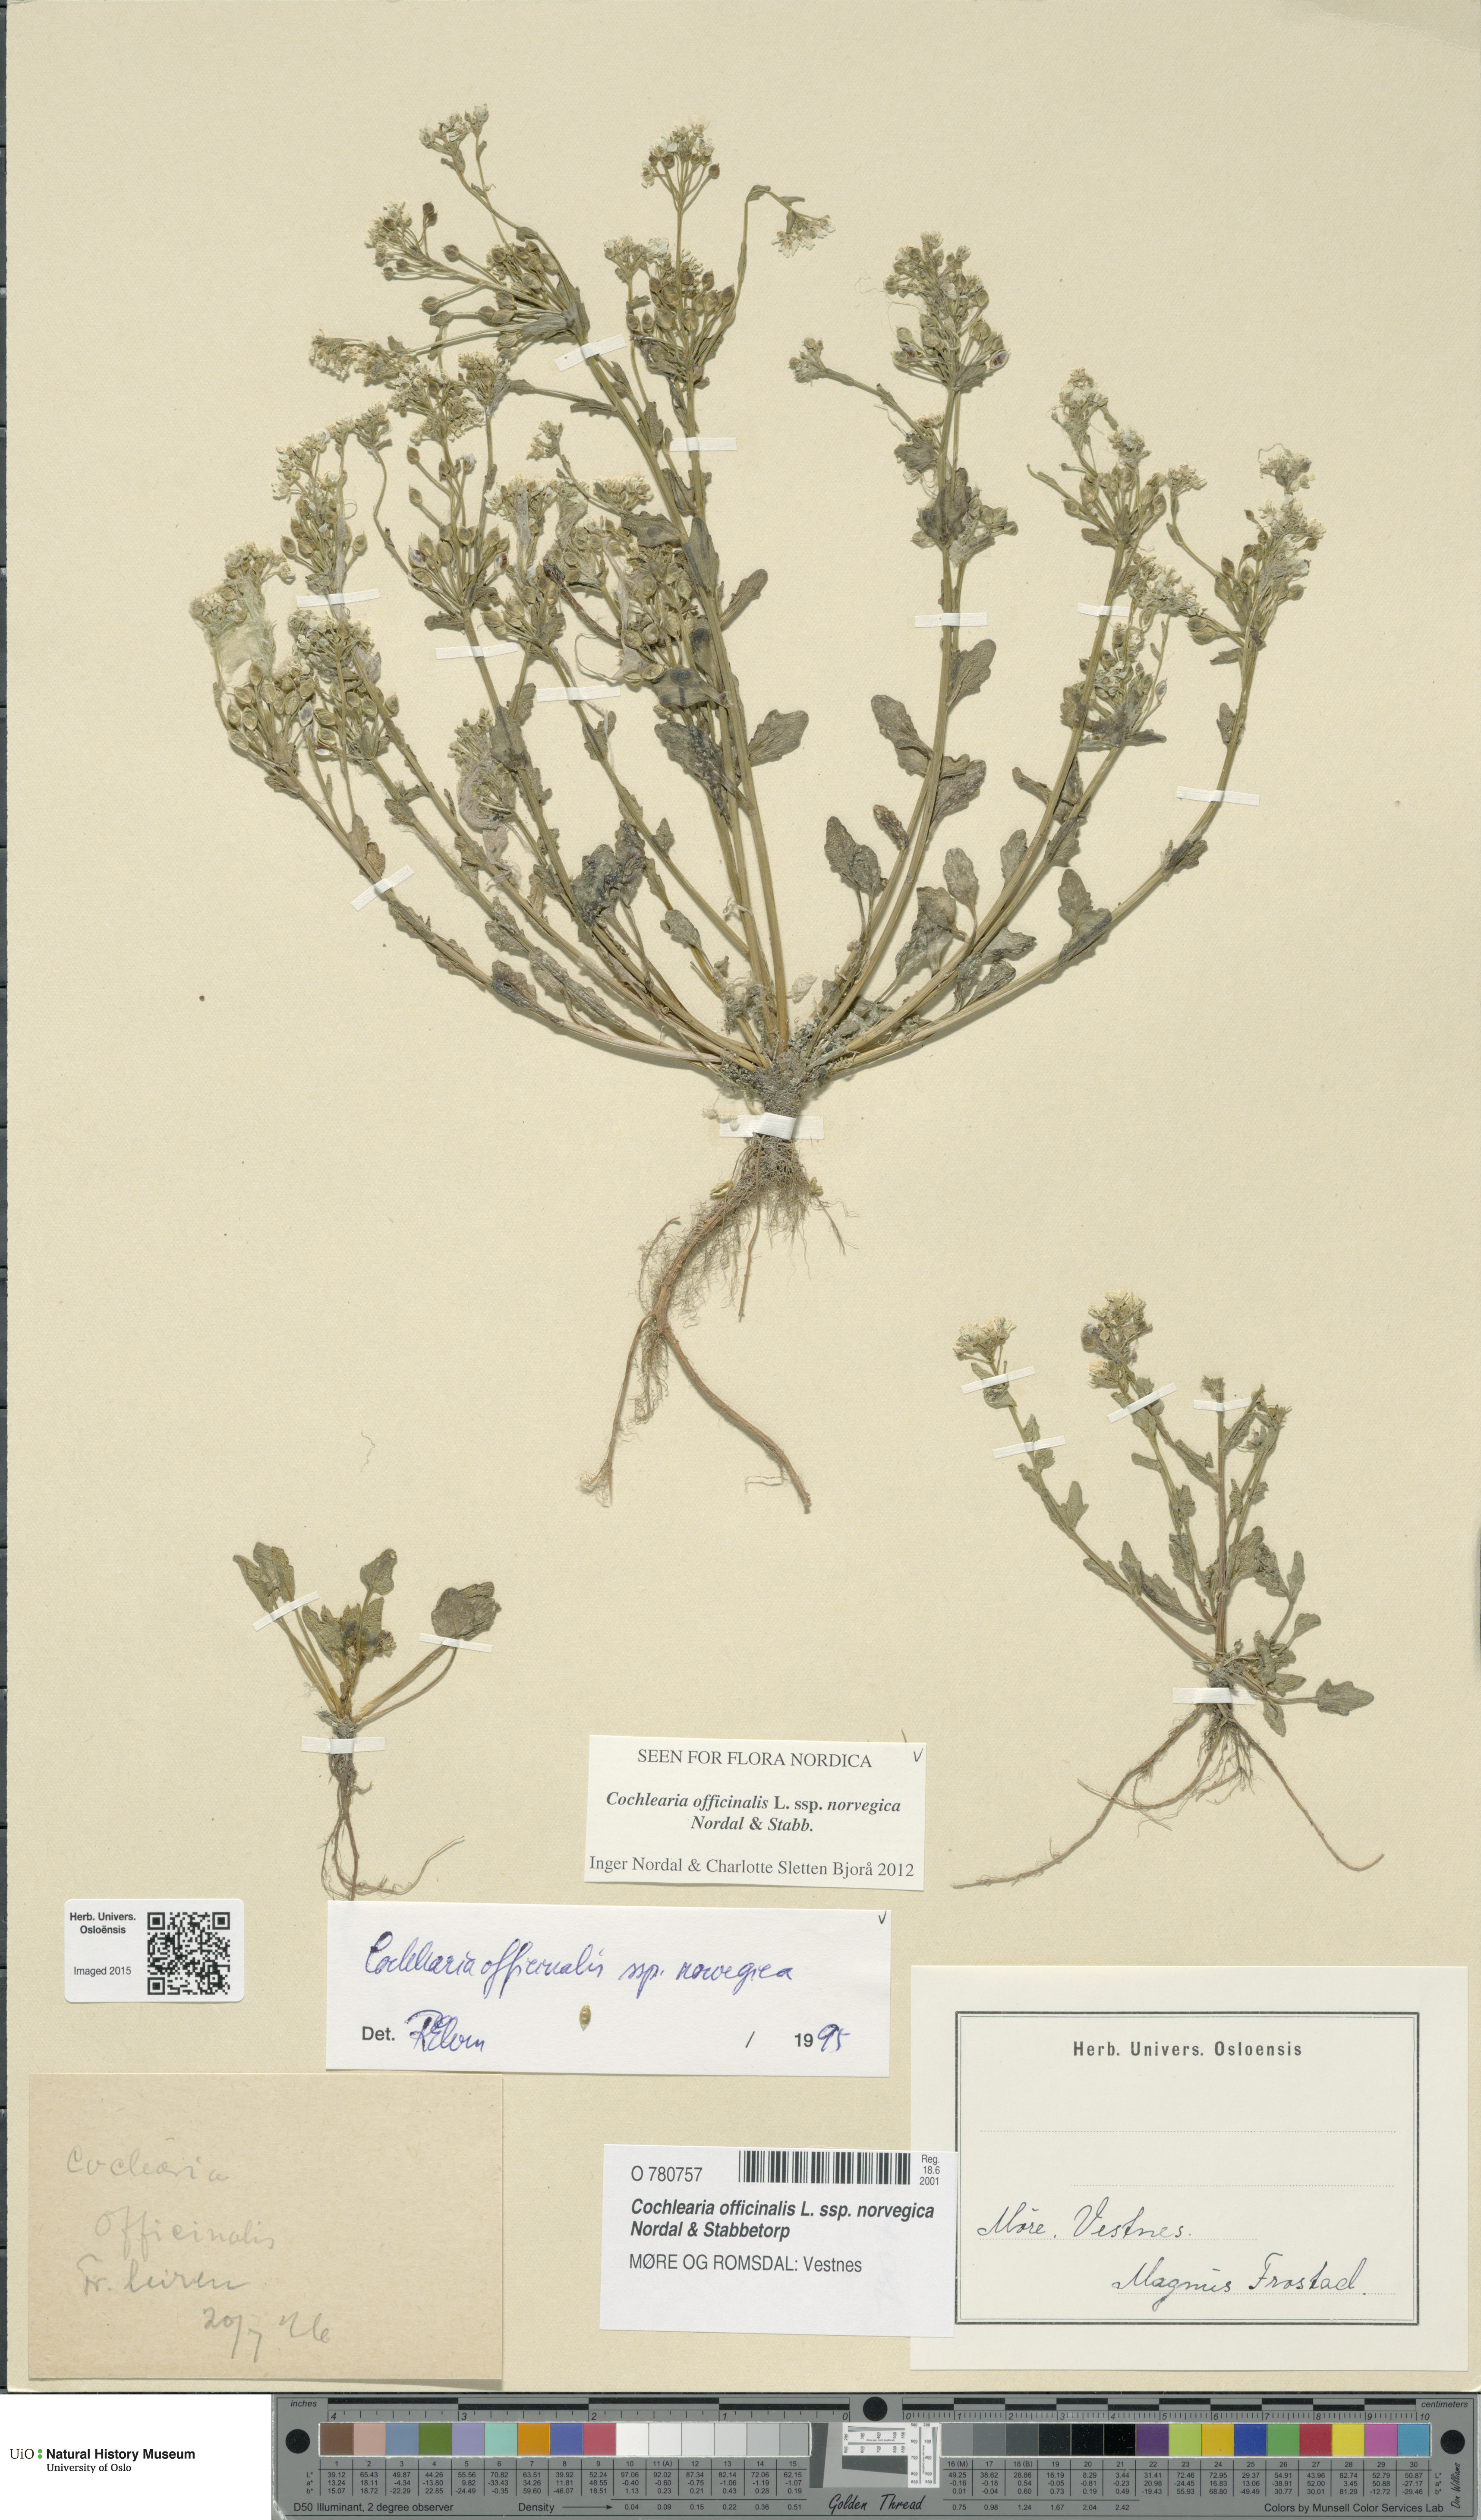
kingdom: Plantae
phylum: Tracheophyta
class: Magnoliopsida
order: Brassicales
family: Brassicaceae
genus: Cochlearia
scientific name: Cochlearia officinalis
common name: Scurvy-grass
